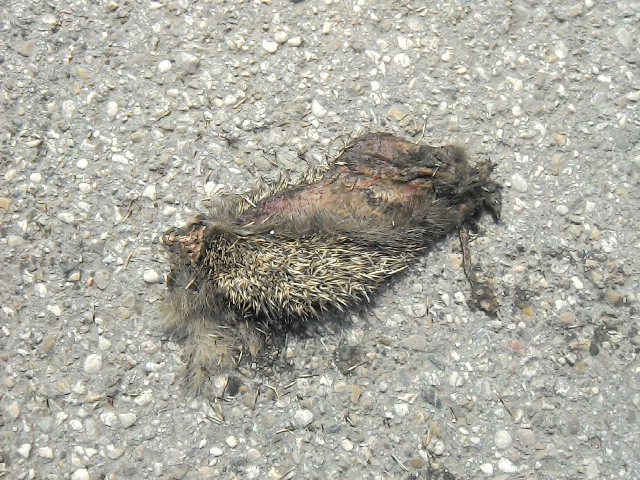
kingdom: Animalia
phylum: Chordata
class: Mammalia
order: Erinaceomorpha
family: Erinaceidae
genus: Erinaceus
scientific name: Erinaceus
